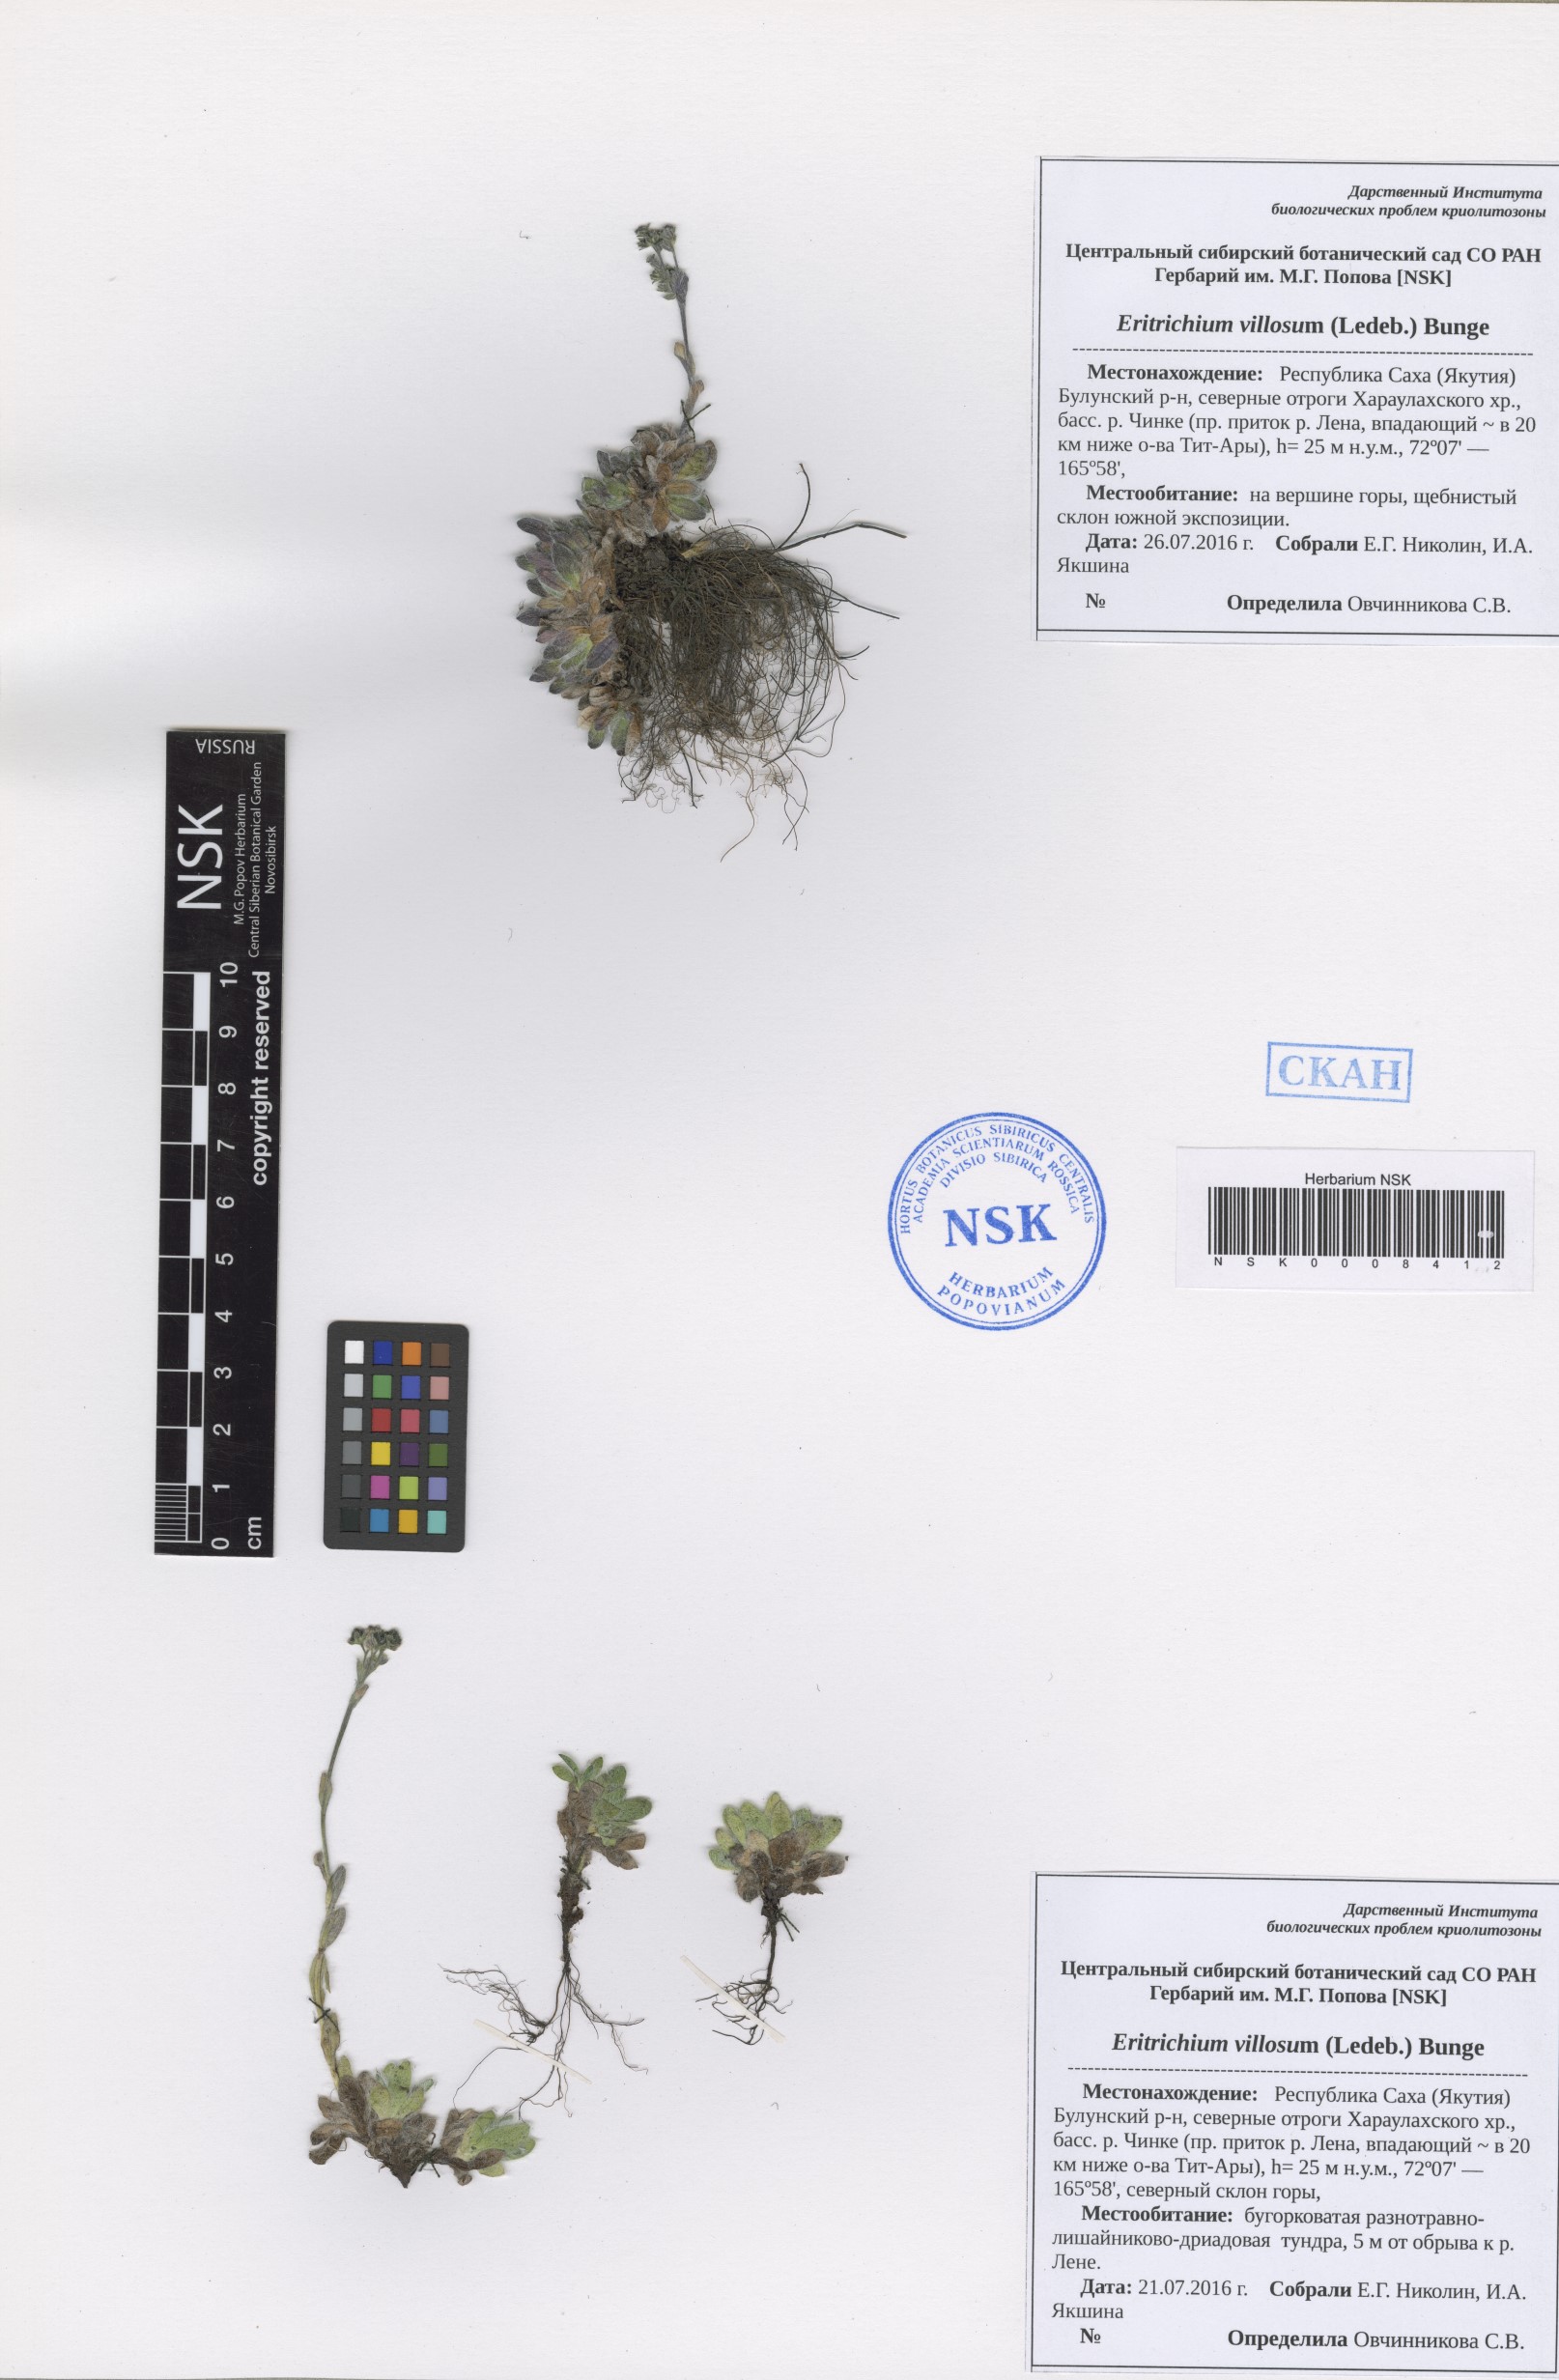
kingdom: Plantae
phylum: Tracheophyta
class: Magnoliopsida
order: Boraginales
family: Boraginaceae
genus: Eritrichium
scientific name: Eritrichium villosum
